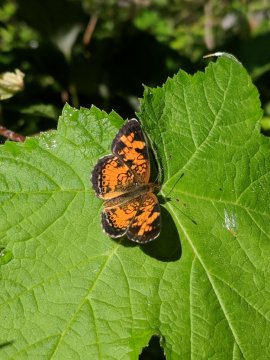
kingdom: Animalia
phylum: Arthropoda
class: Insecta
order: Lepidoptera
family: Nymphalidae
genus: Phyciodes
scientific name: Phyciodes
